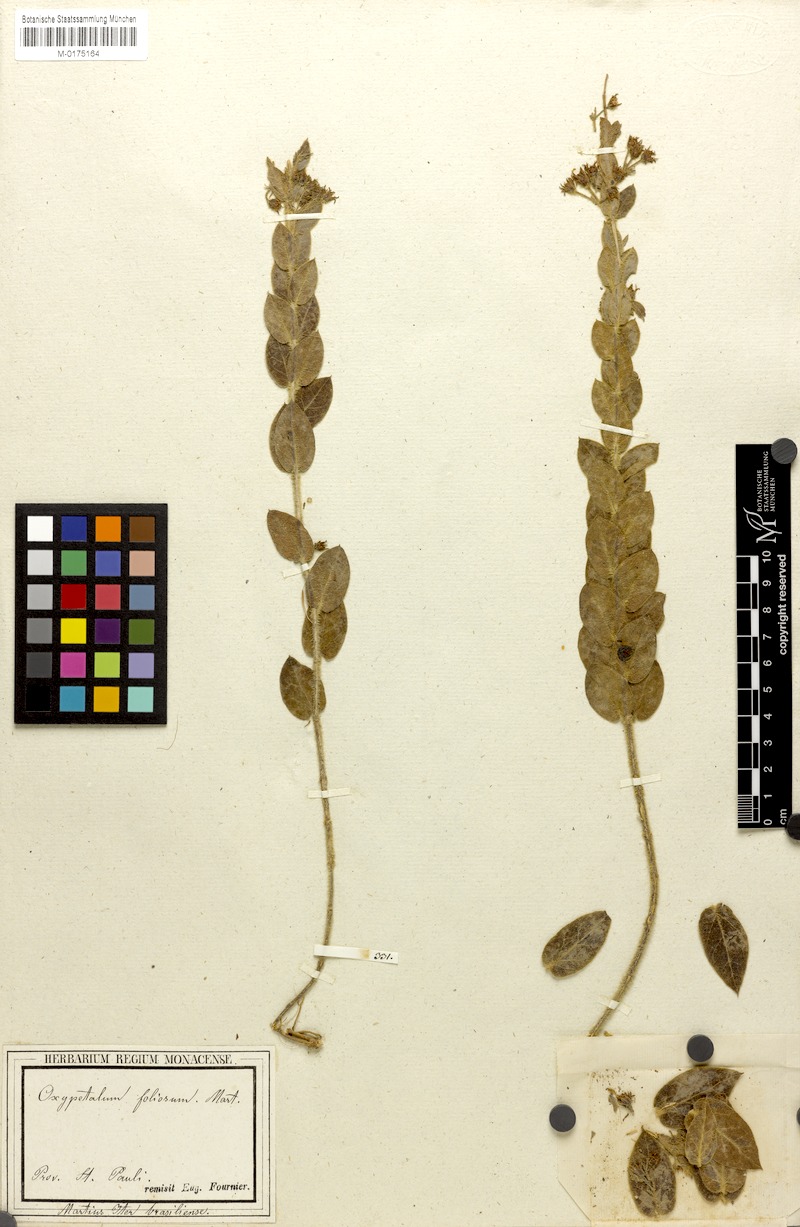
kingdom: Plantae
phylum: Tracheophyta
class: Magnoliopsida
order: Gentianales
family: Apocynaceae
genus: Oxypetalum
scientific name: Oxypetalum foliosum
